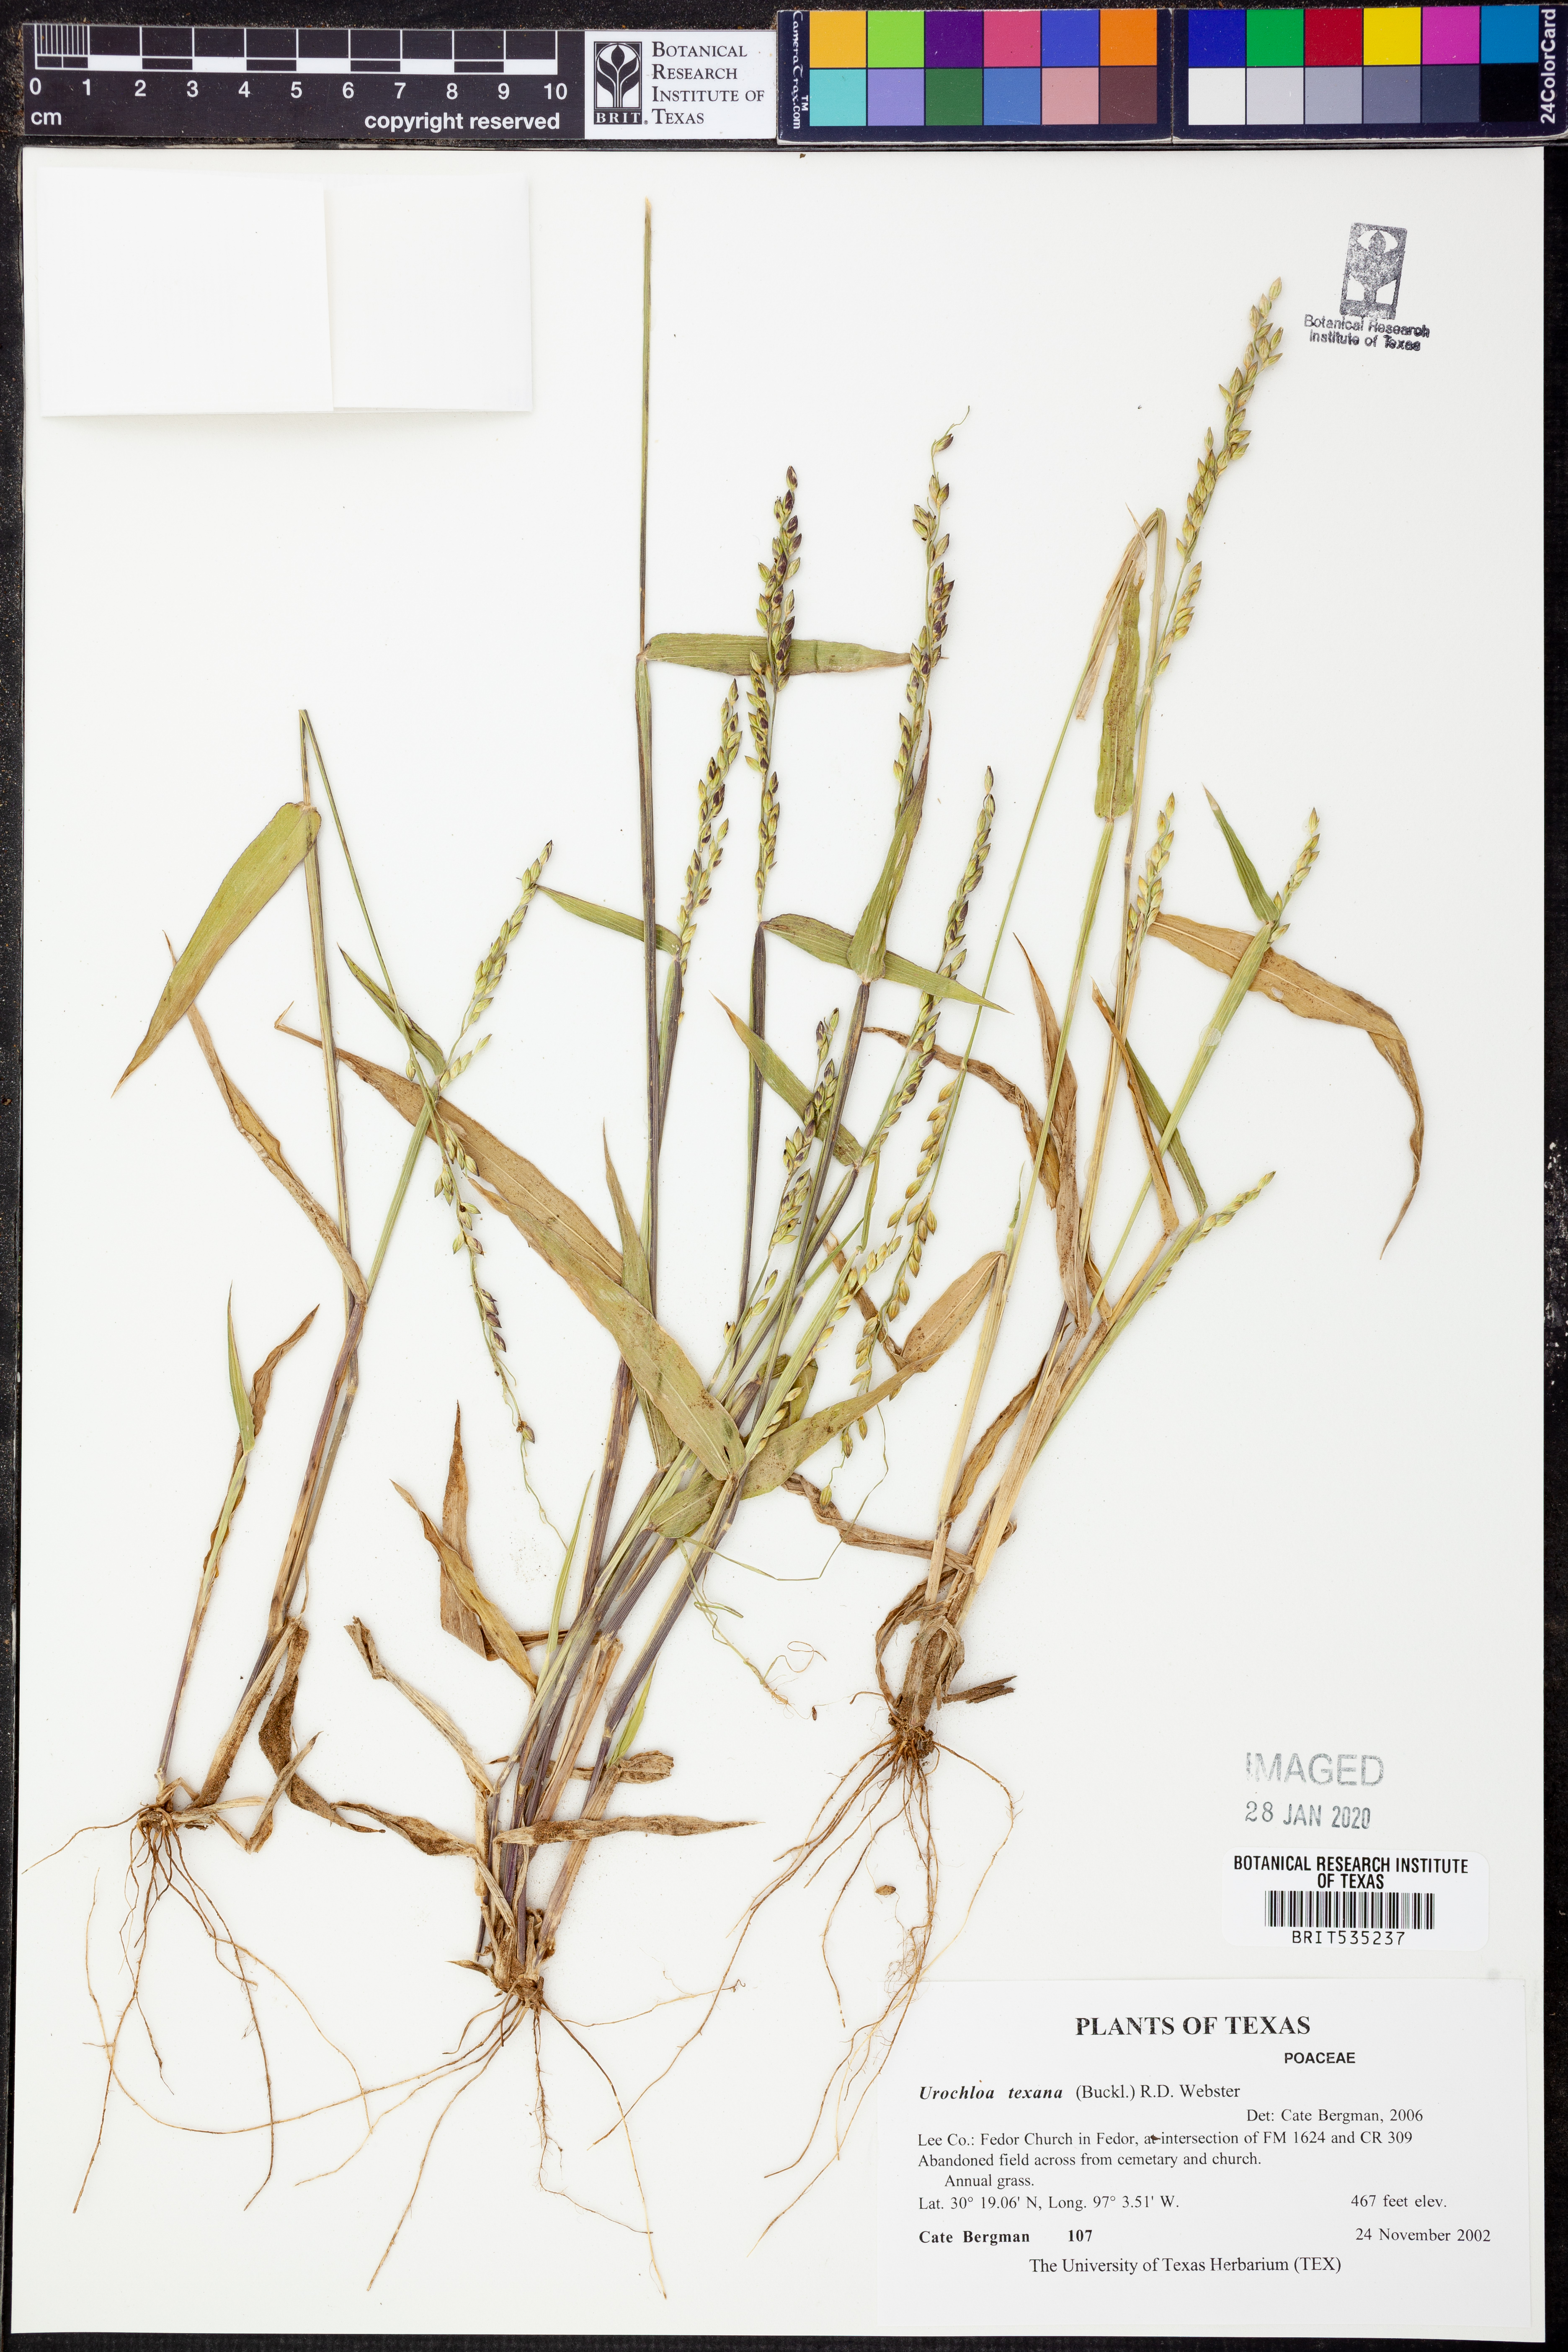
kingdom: Plantae
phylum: Tracheophyta
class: Liliopsida
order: Poales
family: Poaceae
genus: Urochloa
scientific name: Urochloa texana
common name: Texas millet
